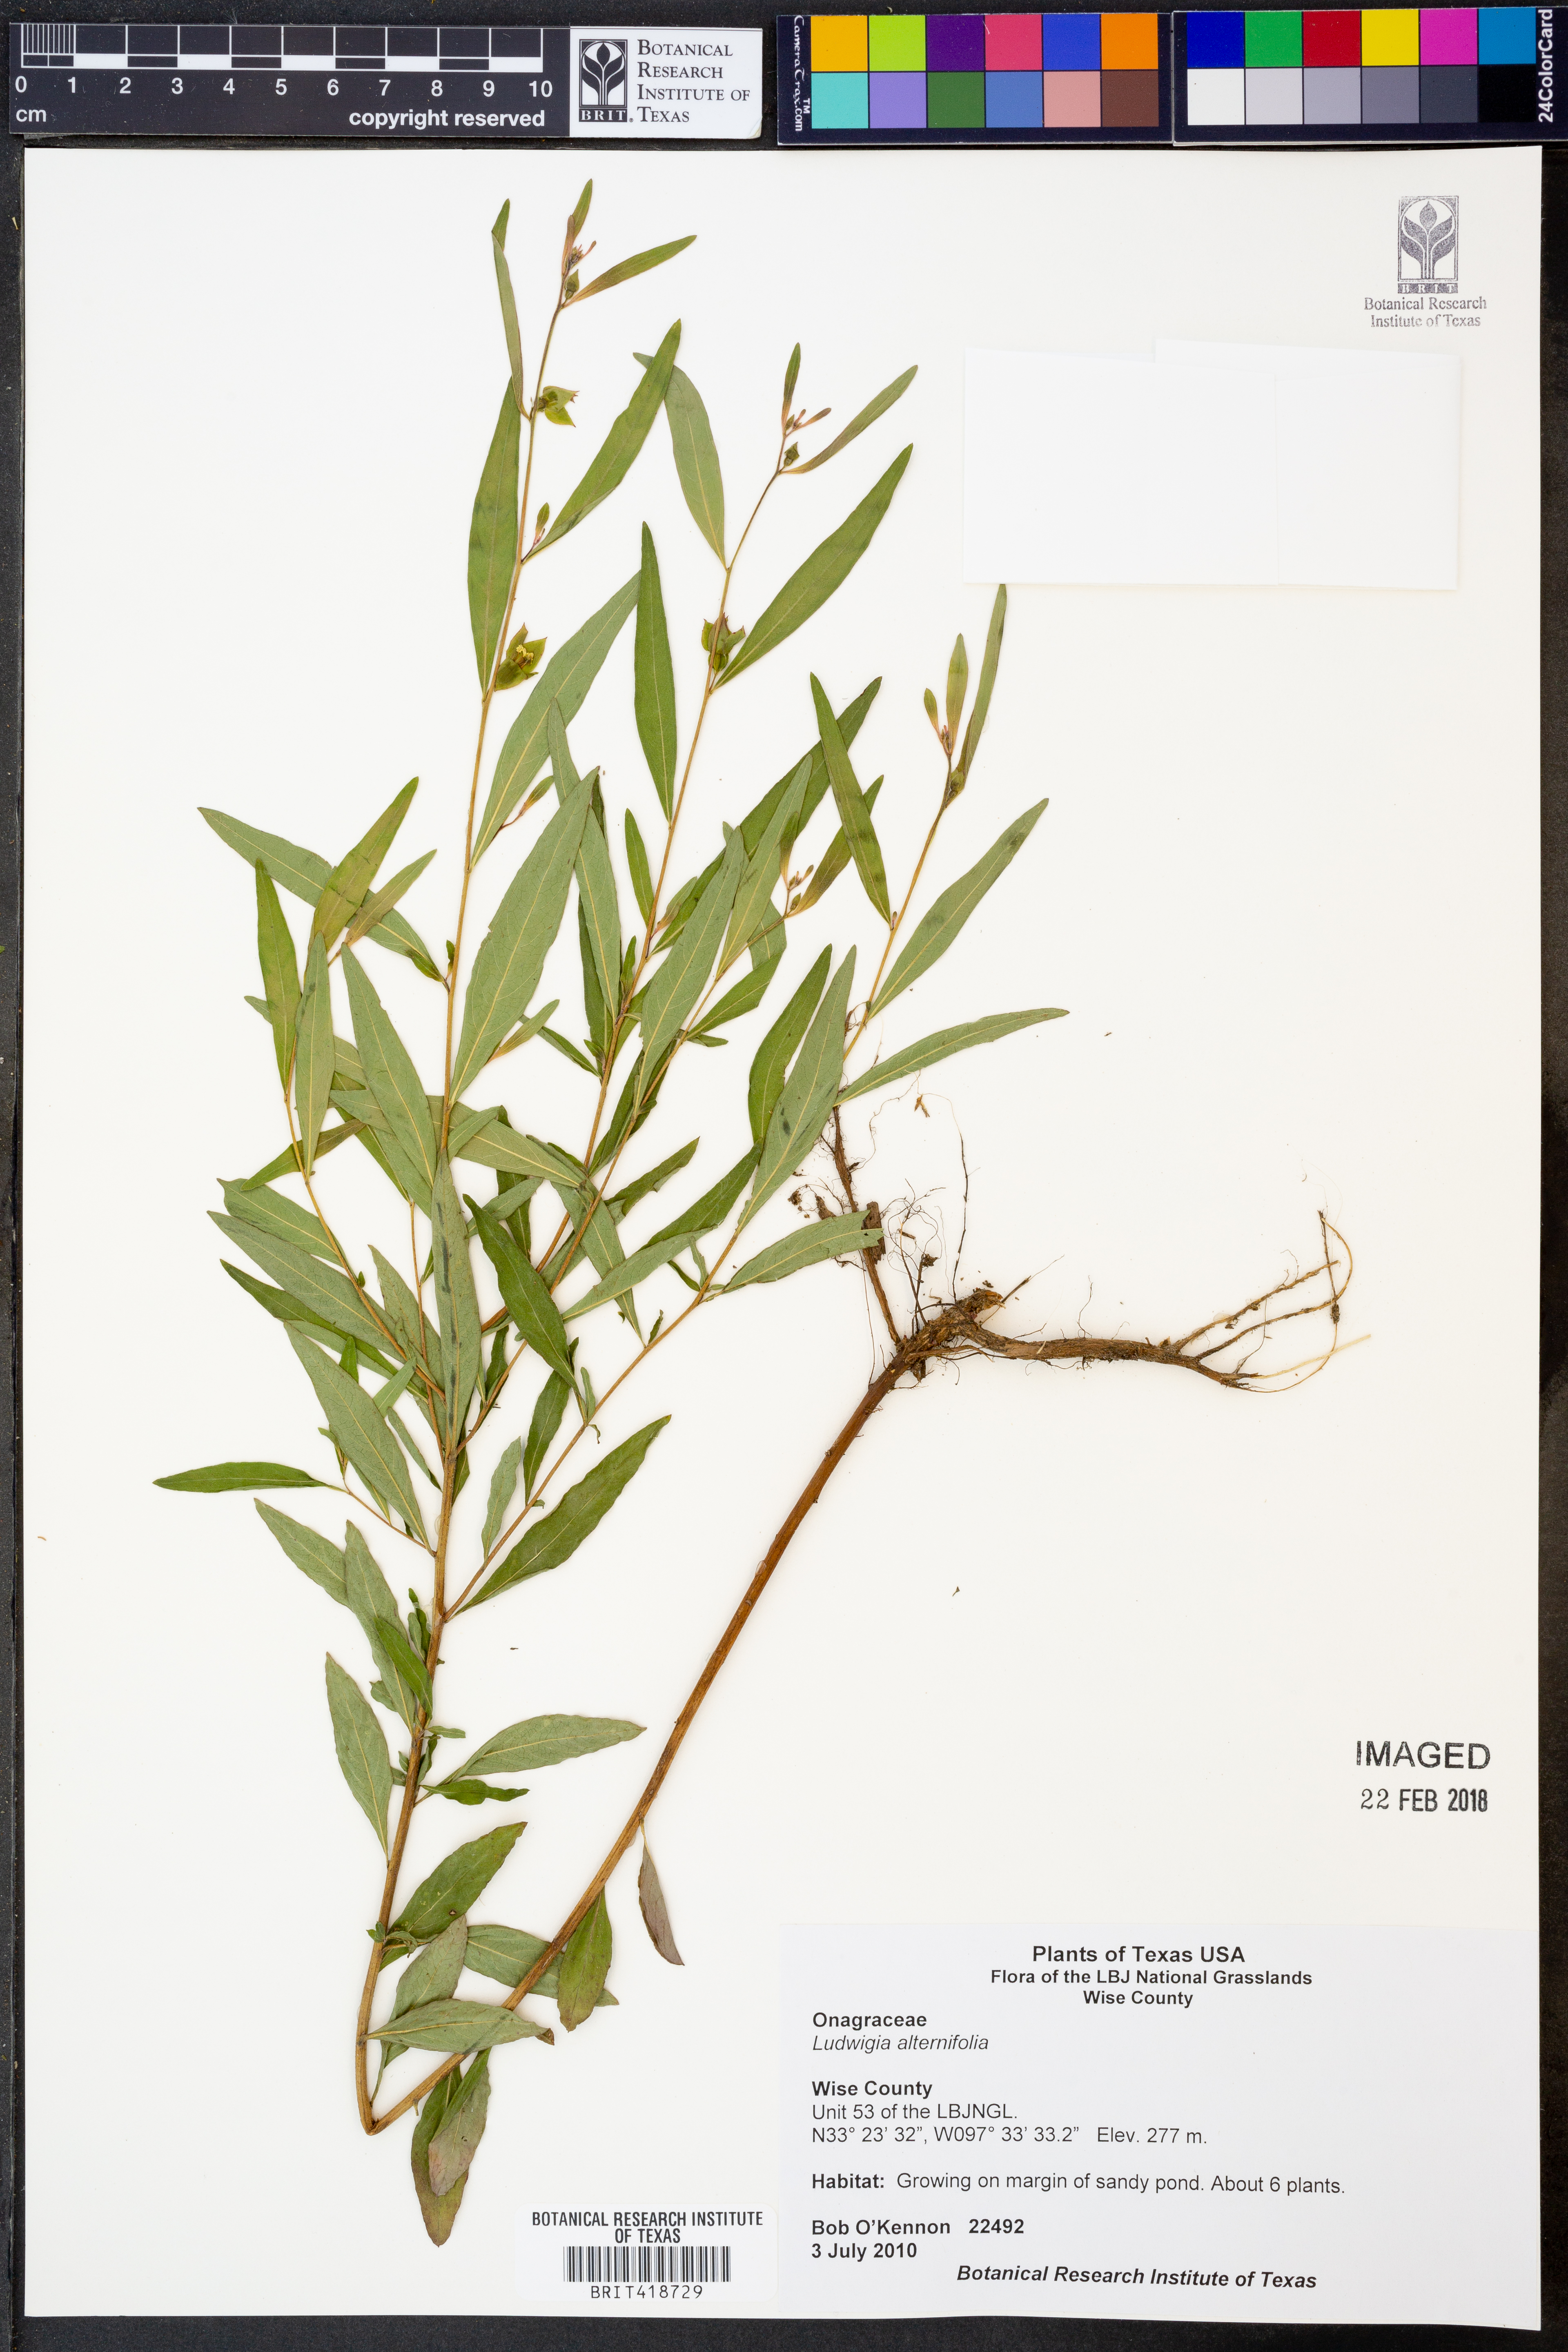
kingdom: Plantae
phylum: Tracheophyta
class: Magnoliopsida
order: Myrtales
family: Onagraceae
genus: Ludwigia
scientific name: Ludwigia alternifolia
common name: Rattlebox
